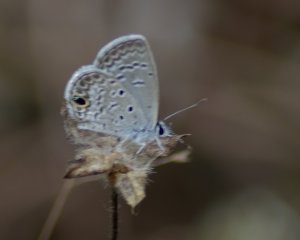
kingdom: Animalia
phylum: Arthropoda
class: Insecta
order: Lepidoptera
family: Lycaenidae
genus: Hemiargus
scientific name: Hemiargus ceraunus
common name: Ceraunus Blue
